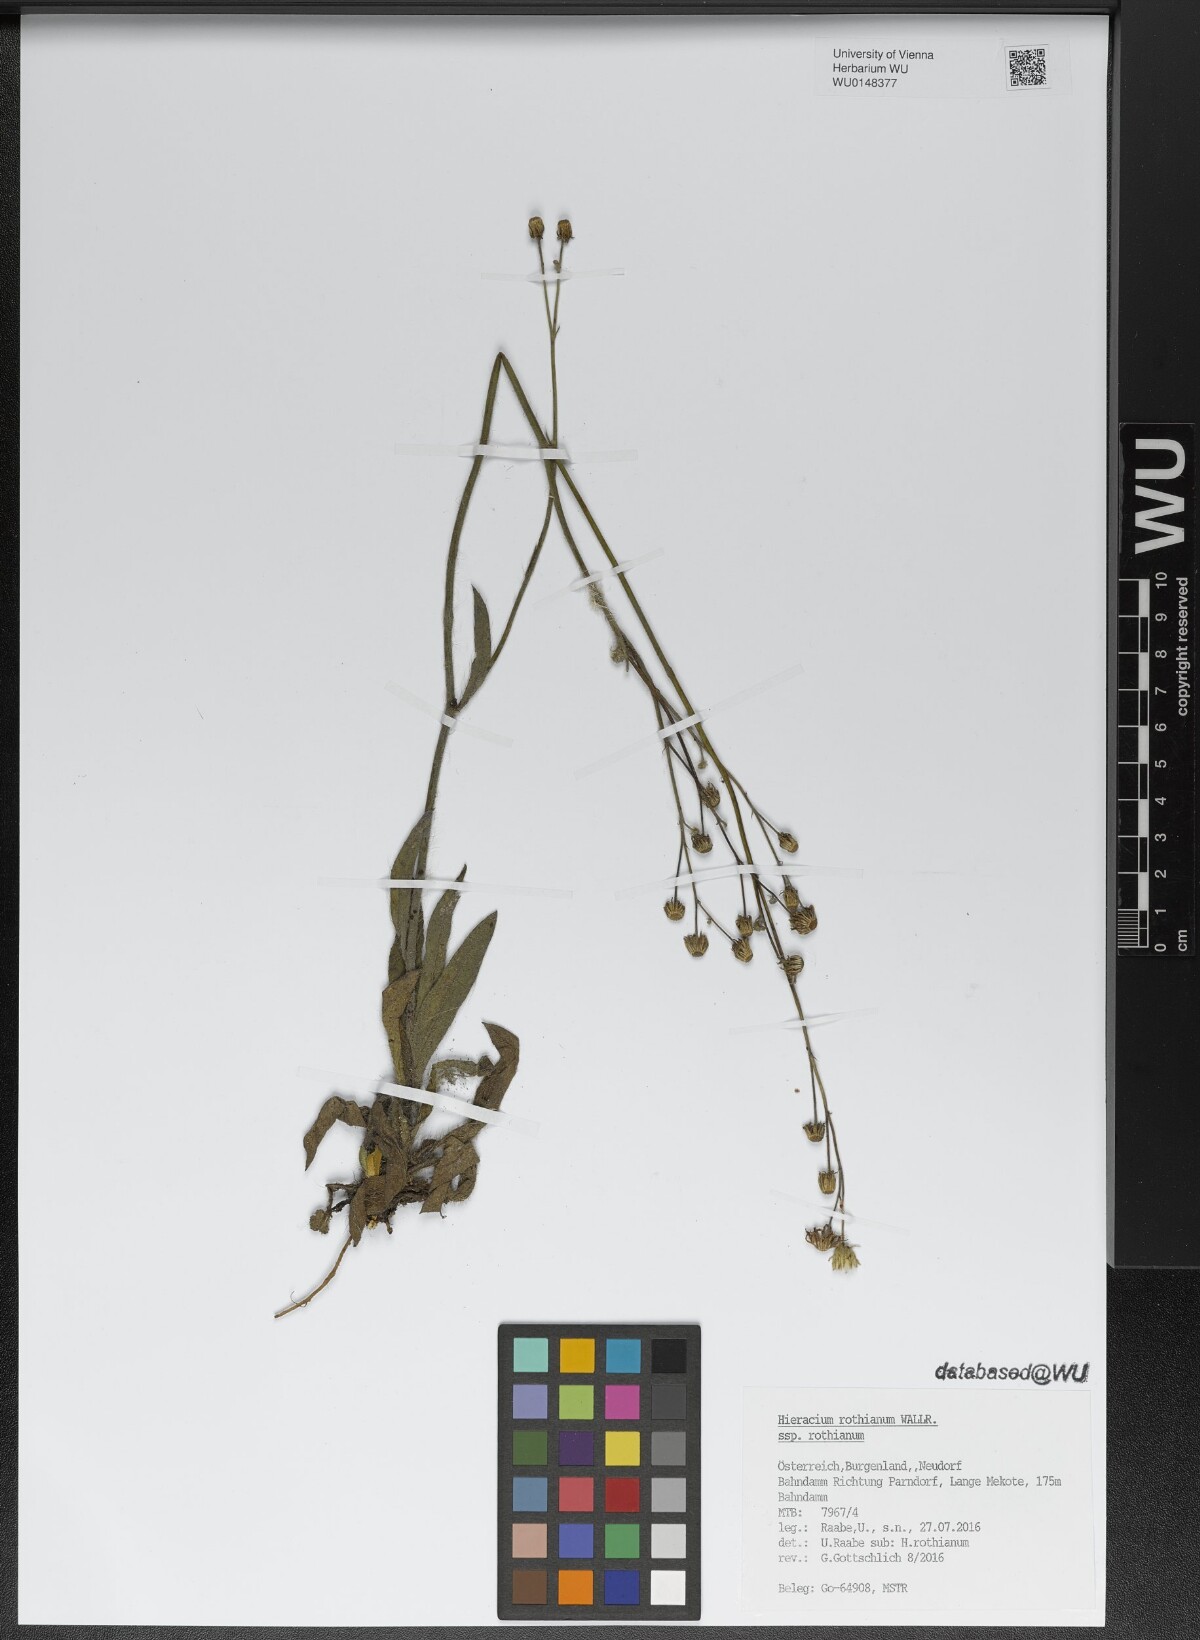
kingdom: Plantae
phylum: Tracheophyta
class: Magnoliopsida
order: Asterales
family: Asteraceae
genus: Pilosella
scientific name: Pilosella rothiana
